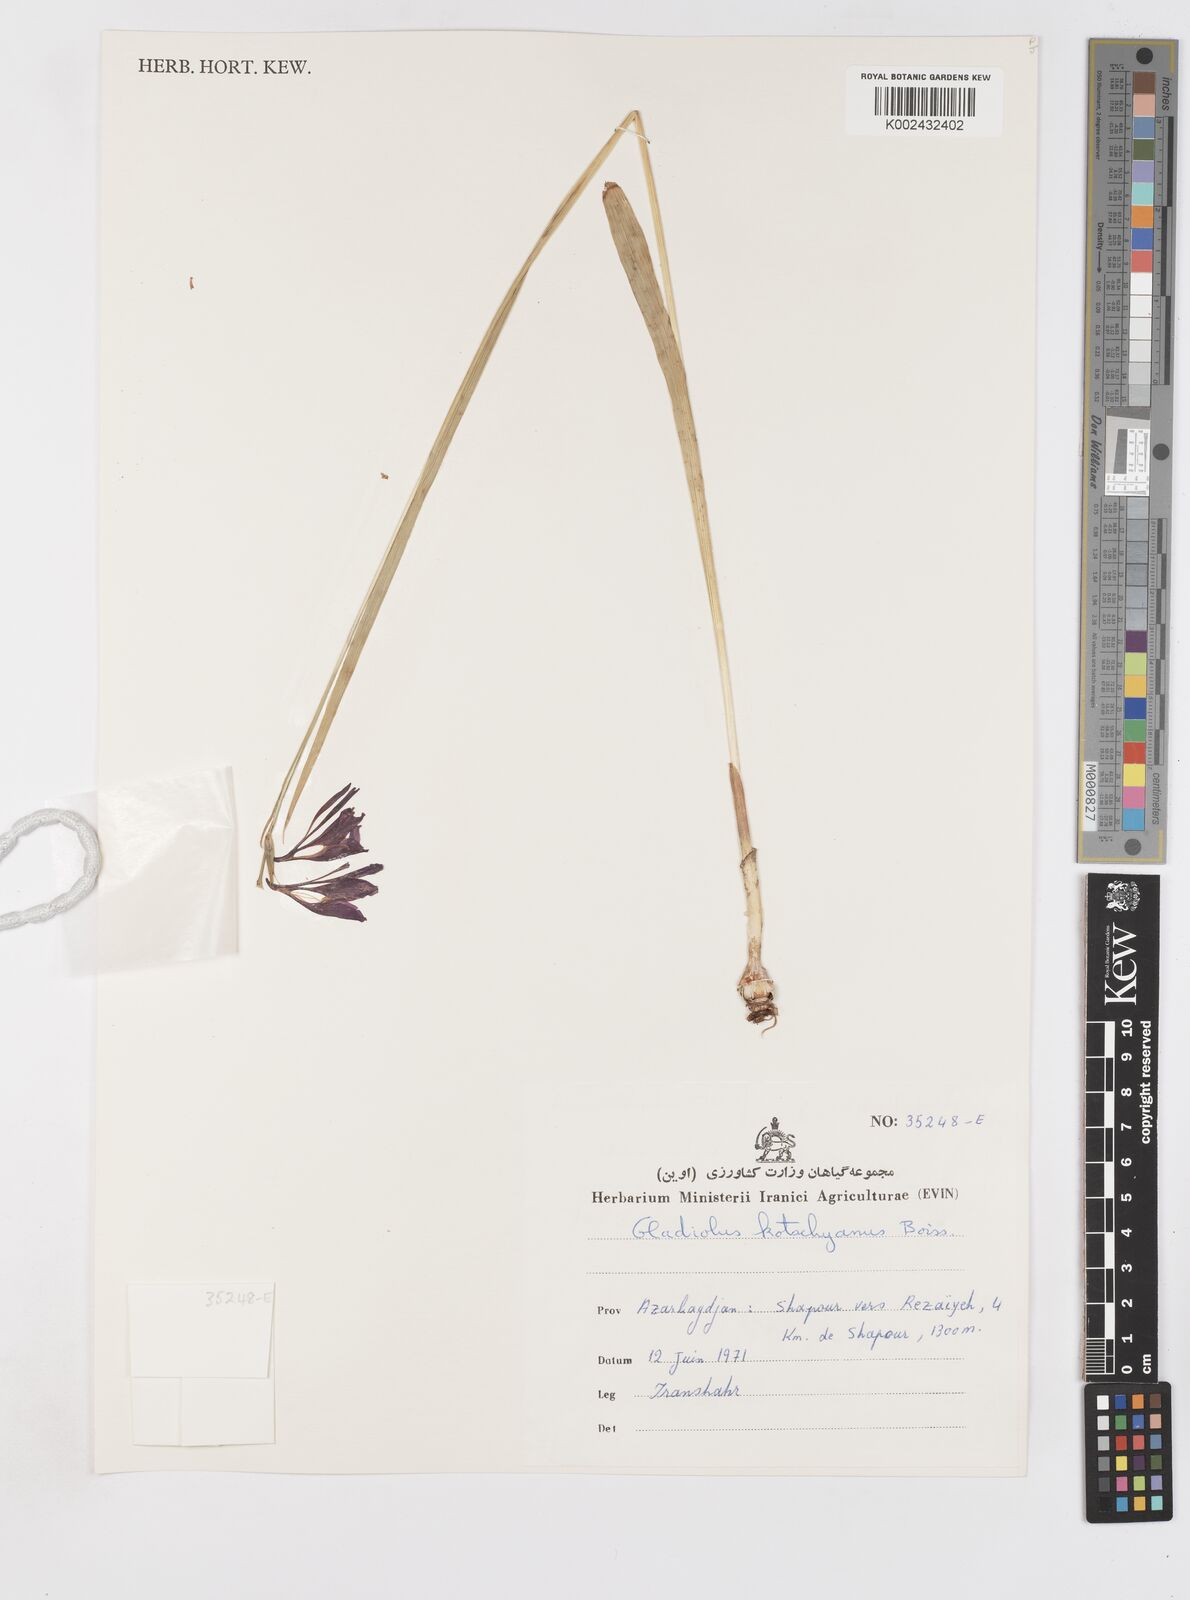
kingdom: Plantae
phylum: Tracheophyta
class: Liliopsida
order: Asparagales
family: Iridaceae
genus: Gladiolus
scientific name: Gladiolus kotschyanus
